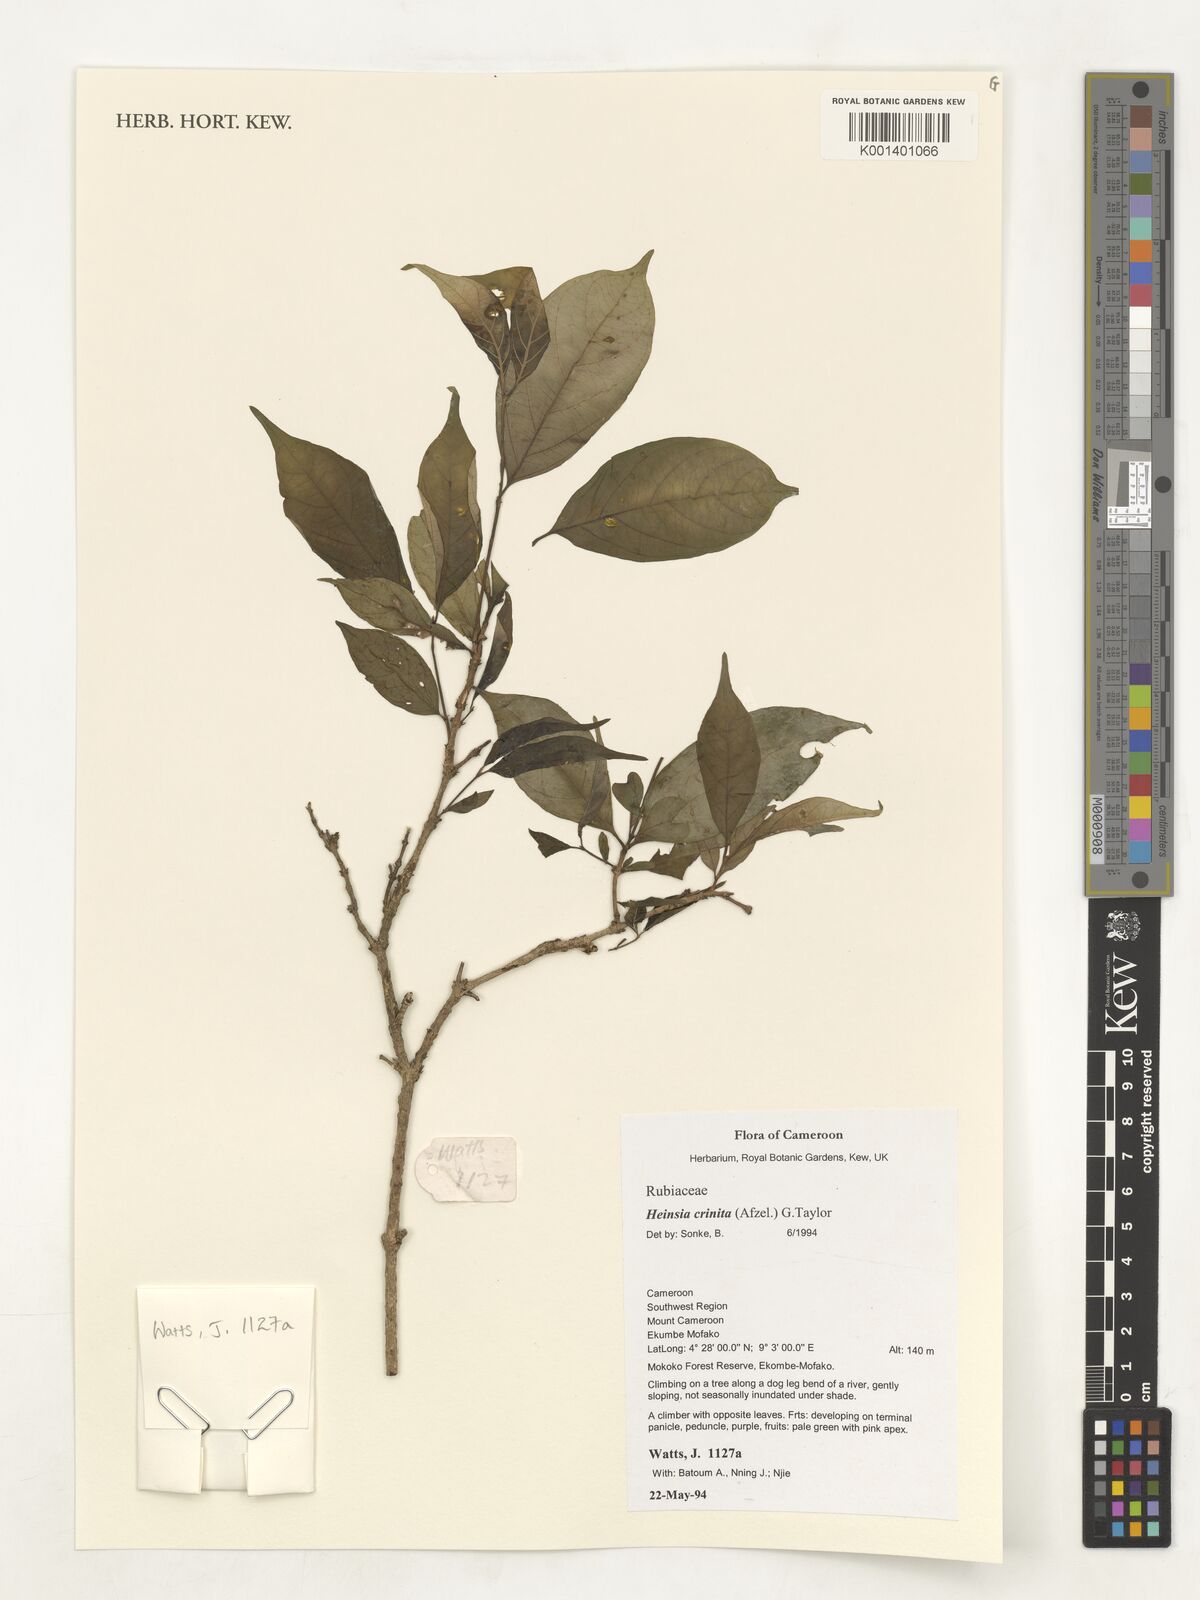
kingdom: Plantae
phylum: Tracheophyta
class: Magnoliopsida
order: Gentianales
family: Rubiaceae
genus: Heinsia
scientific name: Heinsia crinita
